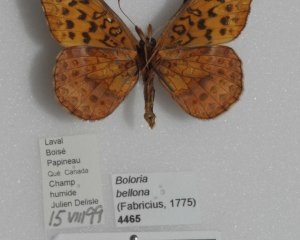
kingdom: Animalia
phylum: Arthropoda
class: Insecta
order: Lepidoptera
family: Nymphalidae
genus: Clossiana
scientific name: Clossiana toddi
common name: Meadow Fritillary
